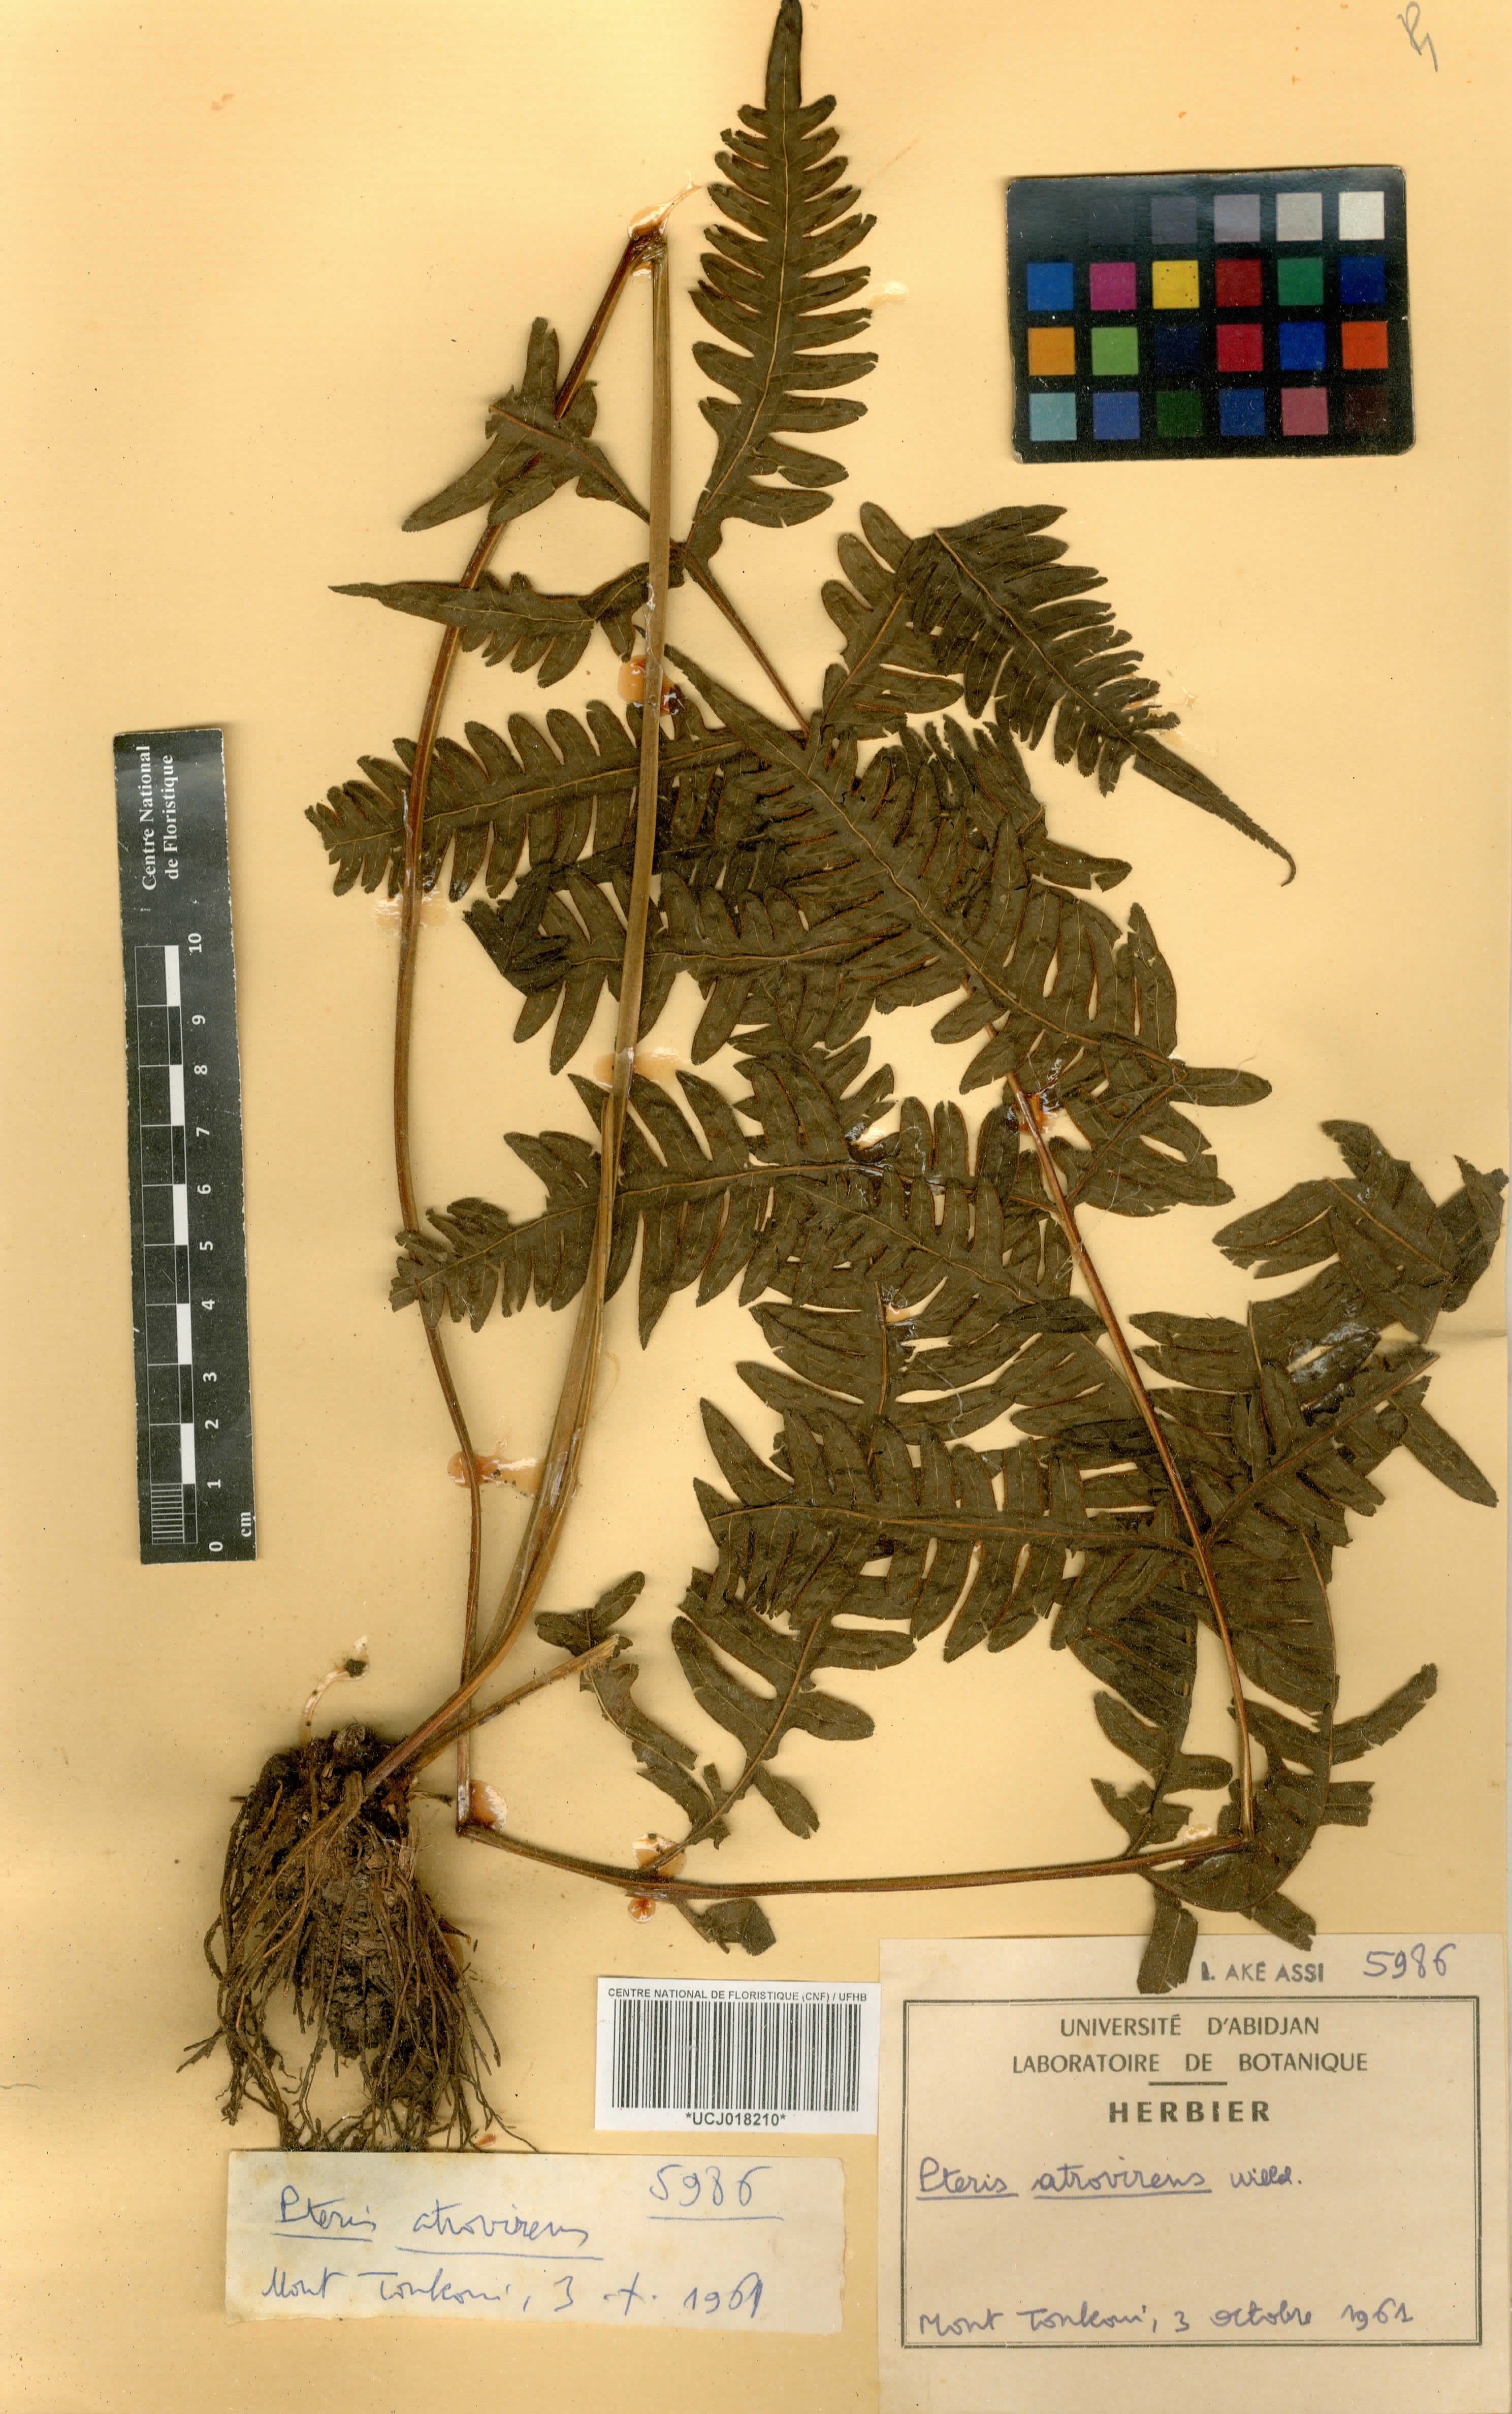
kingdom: Plantae
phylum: Tracheophyta
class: Polypodiopsida
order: Polypodiales
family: Pteridaceae
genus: Pteris
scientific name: Pteris atrovirens
